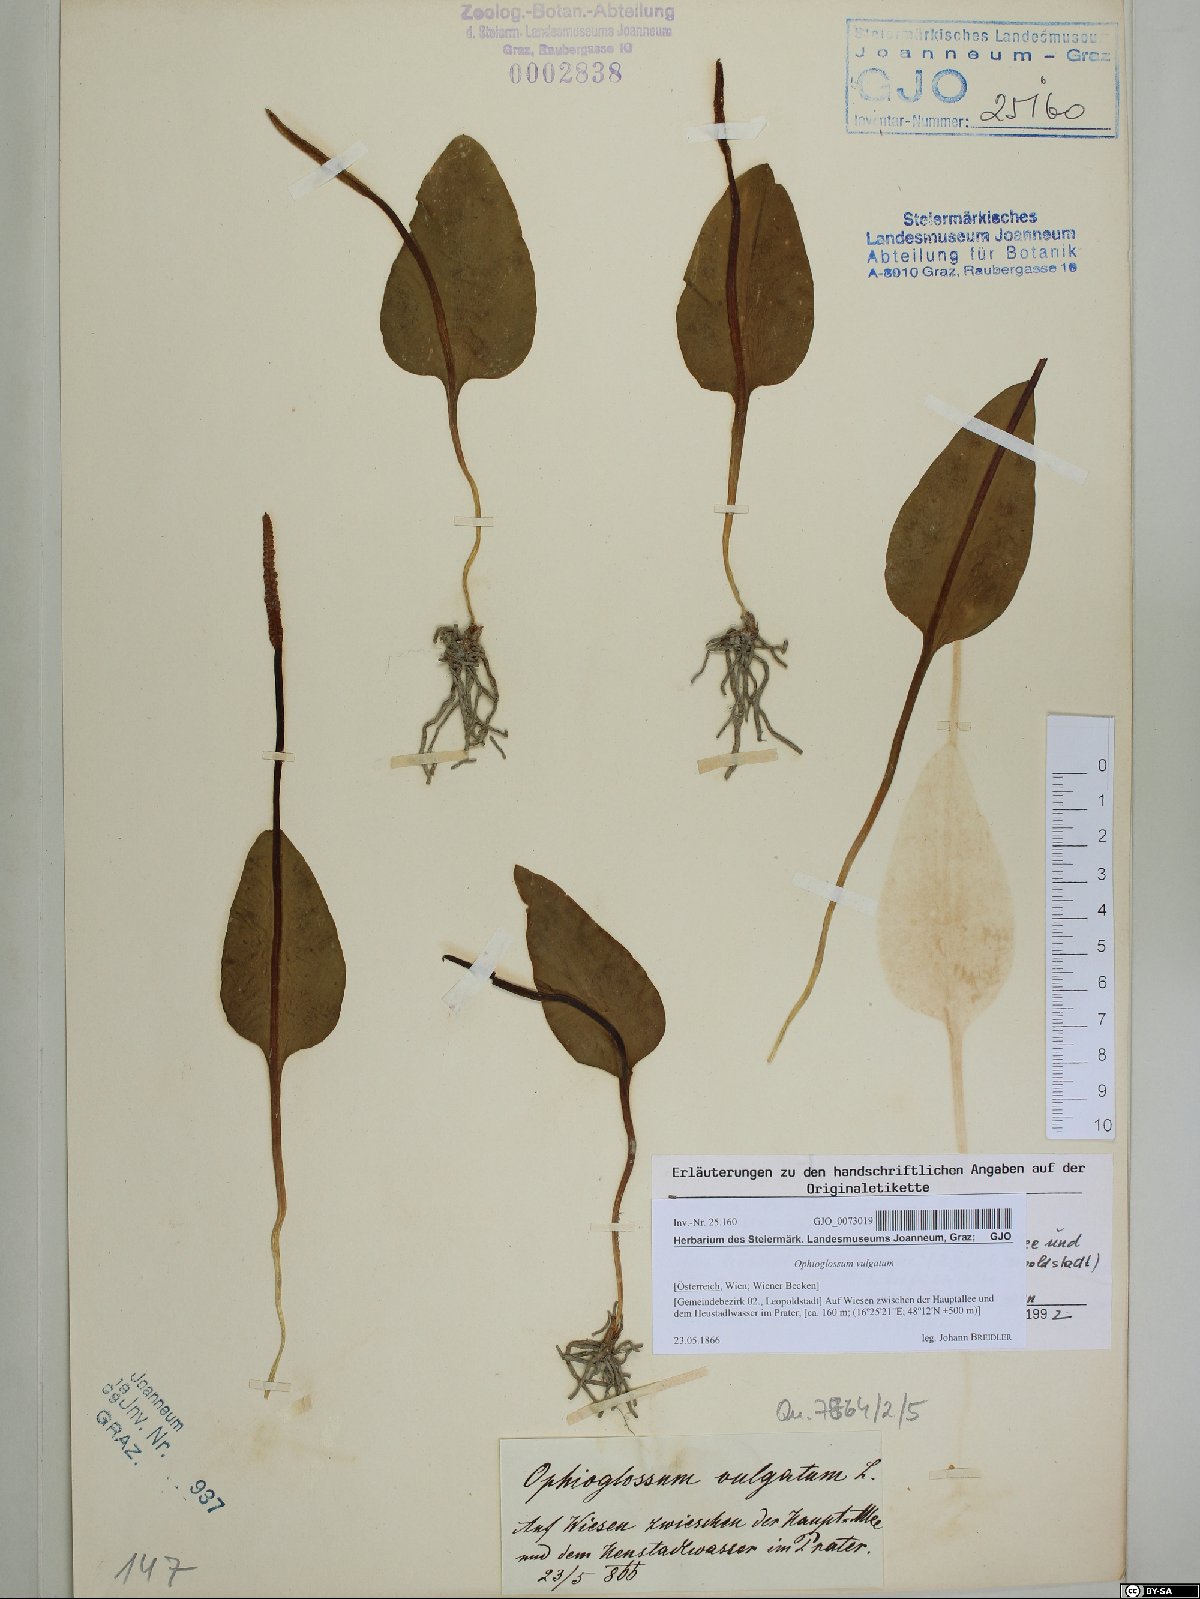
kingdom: Plantae
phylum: Tracheophyta
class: Polypodiopsida
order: Ophioglossales
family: Ophioglossaceae
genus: Ophioglossum
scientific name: Ophioglossum vulgatum
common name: Adder's-tongue
